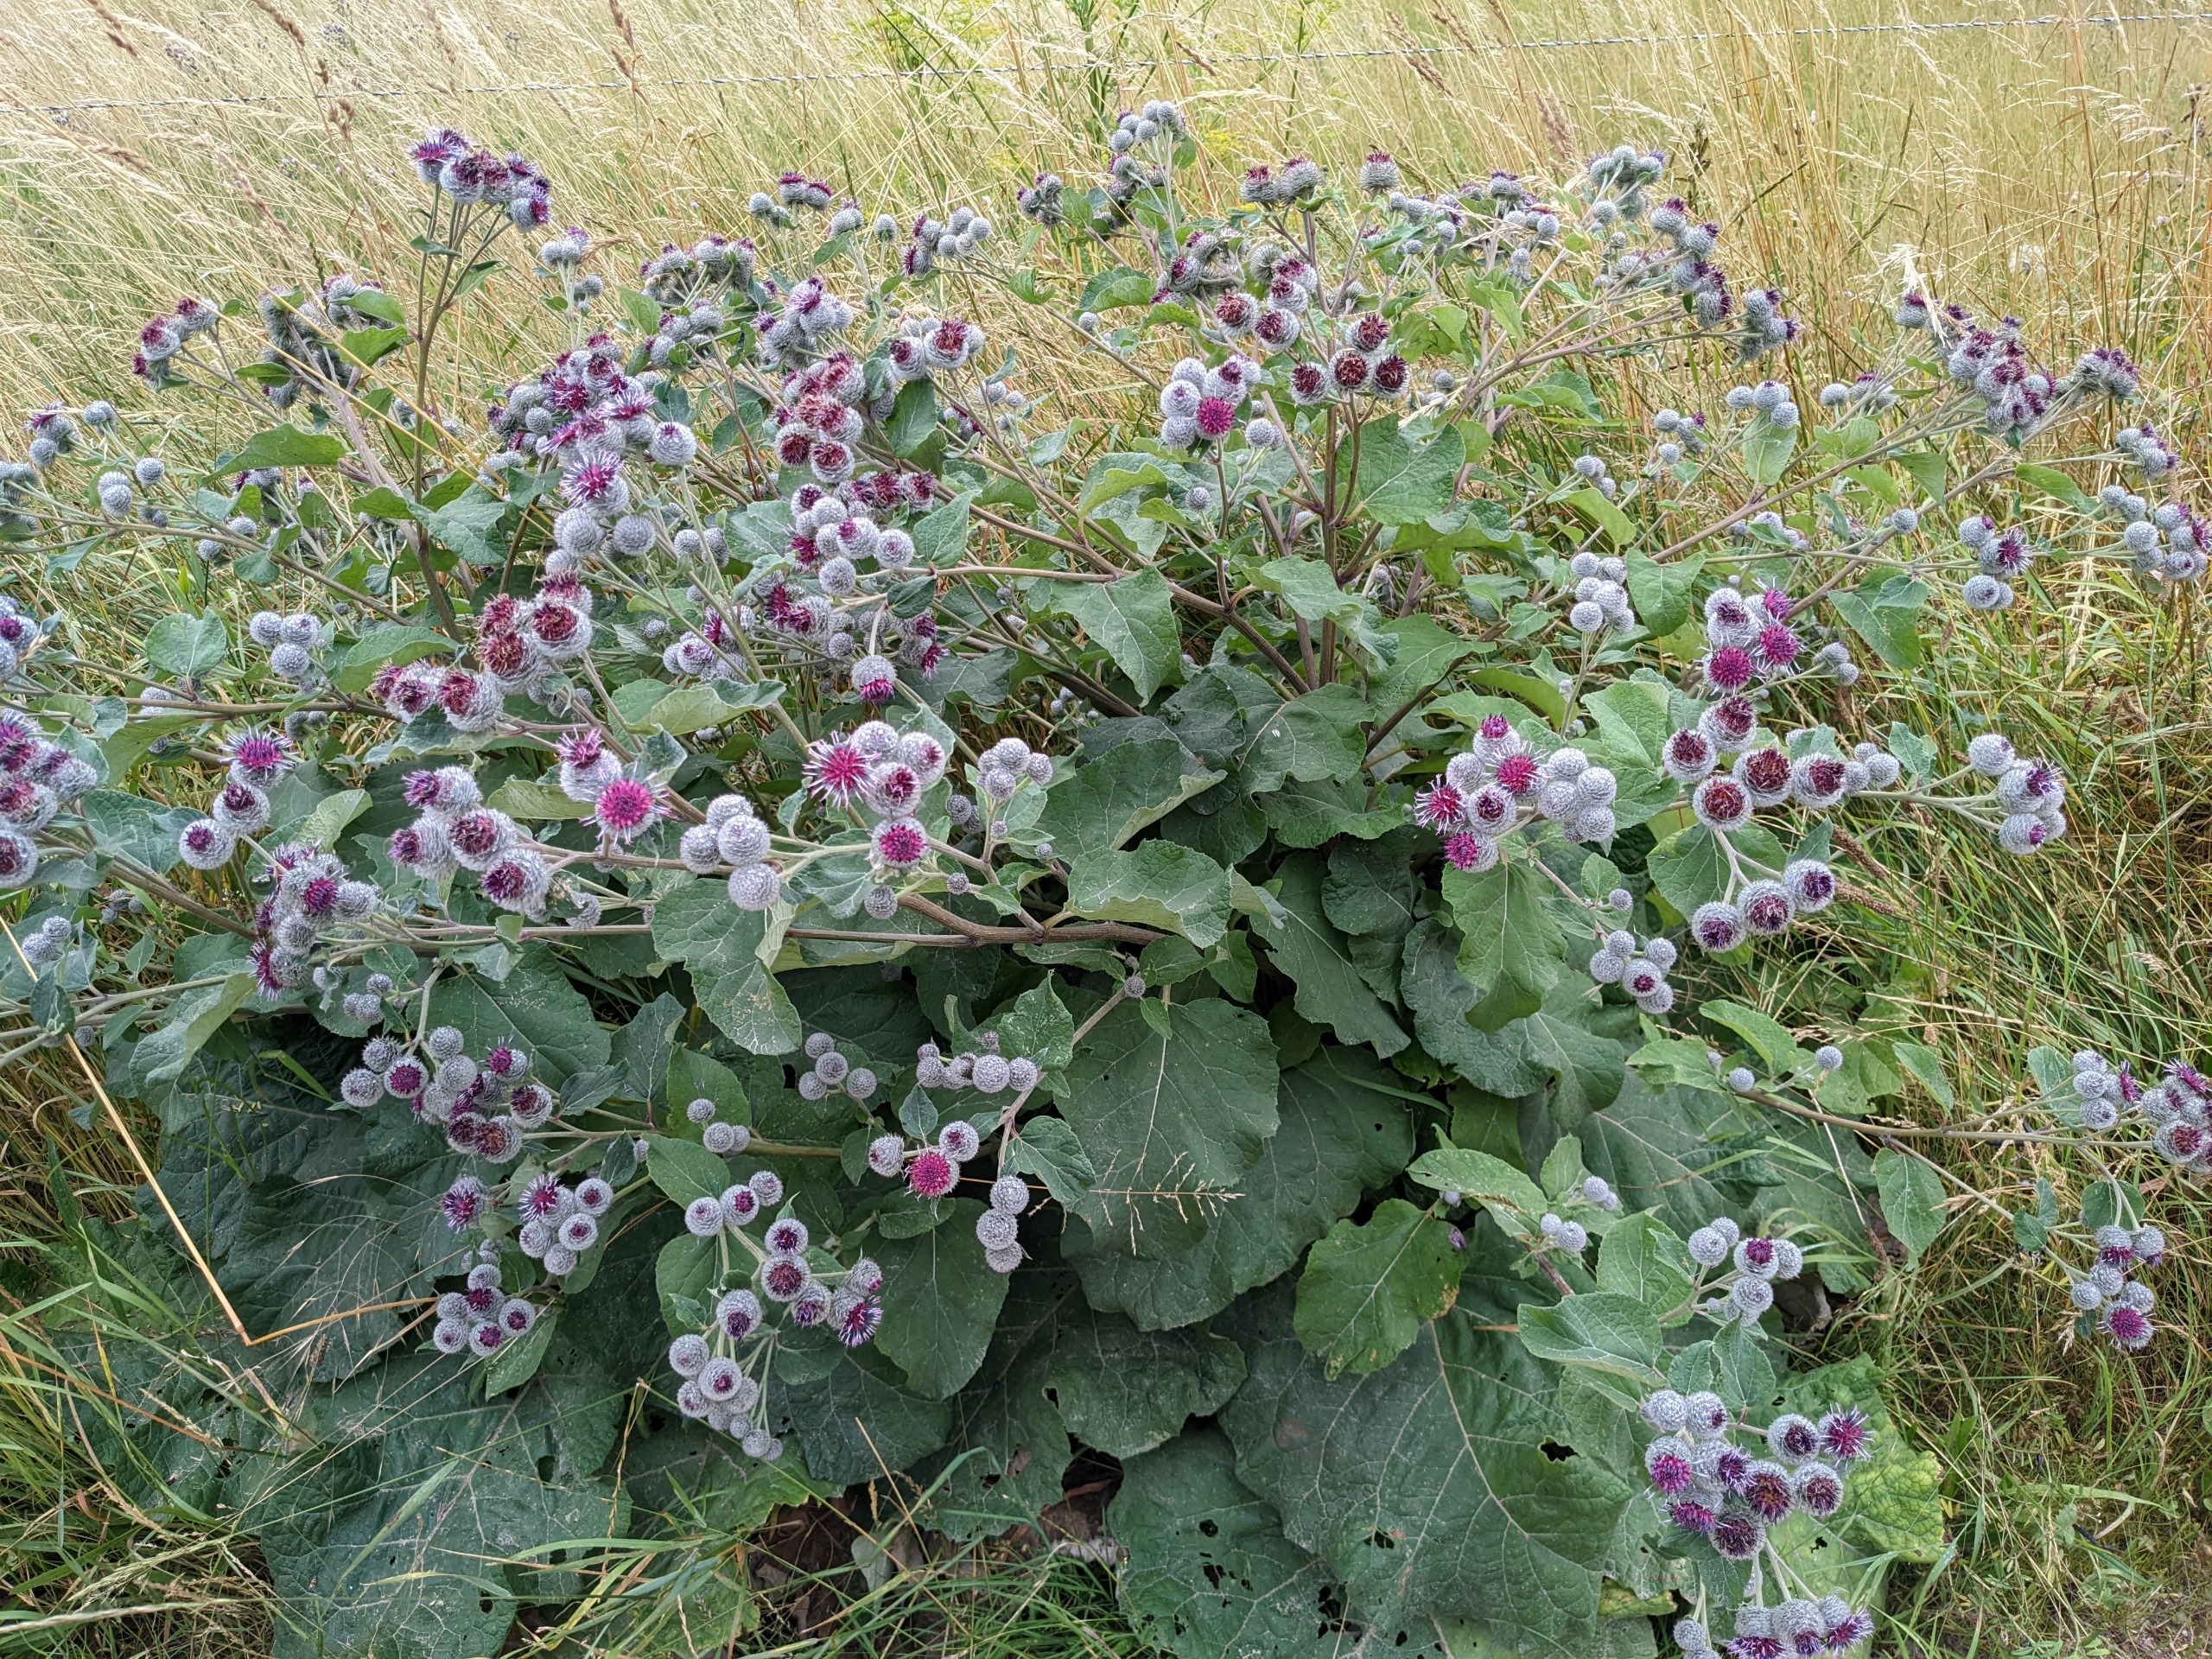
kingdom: Plantae
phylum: Tracheophyta
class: Magnoliopsida
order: Asterales
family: Asteraceae
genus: Arctium
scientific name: Arctium tomentosum
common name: Filtet burre
